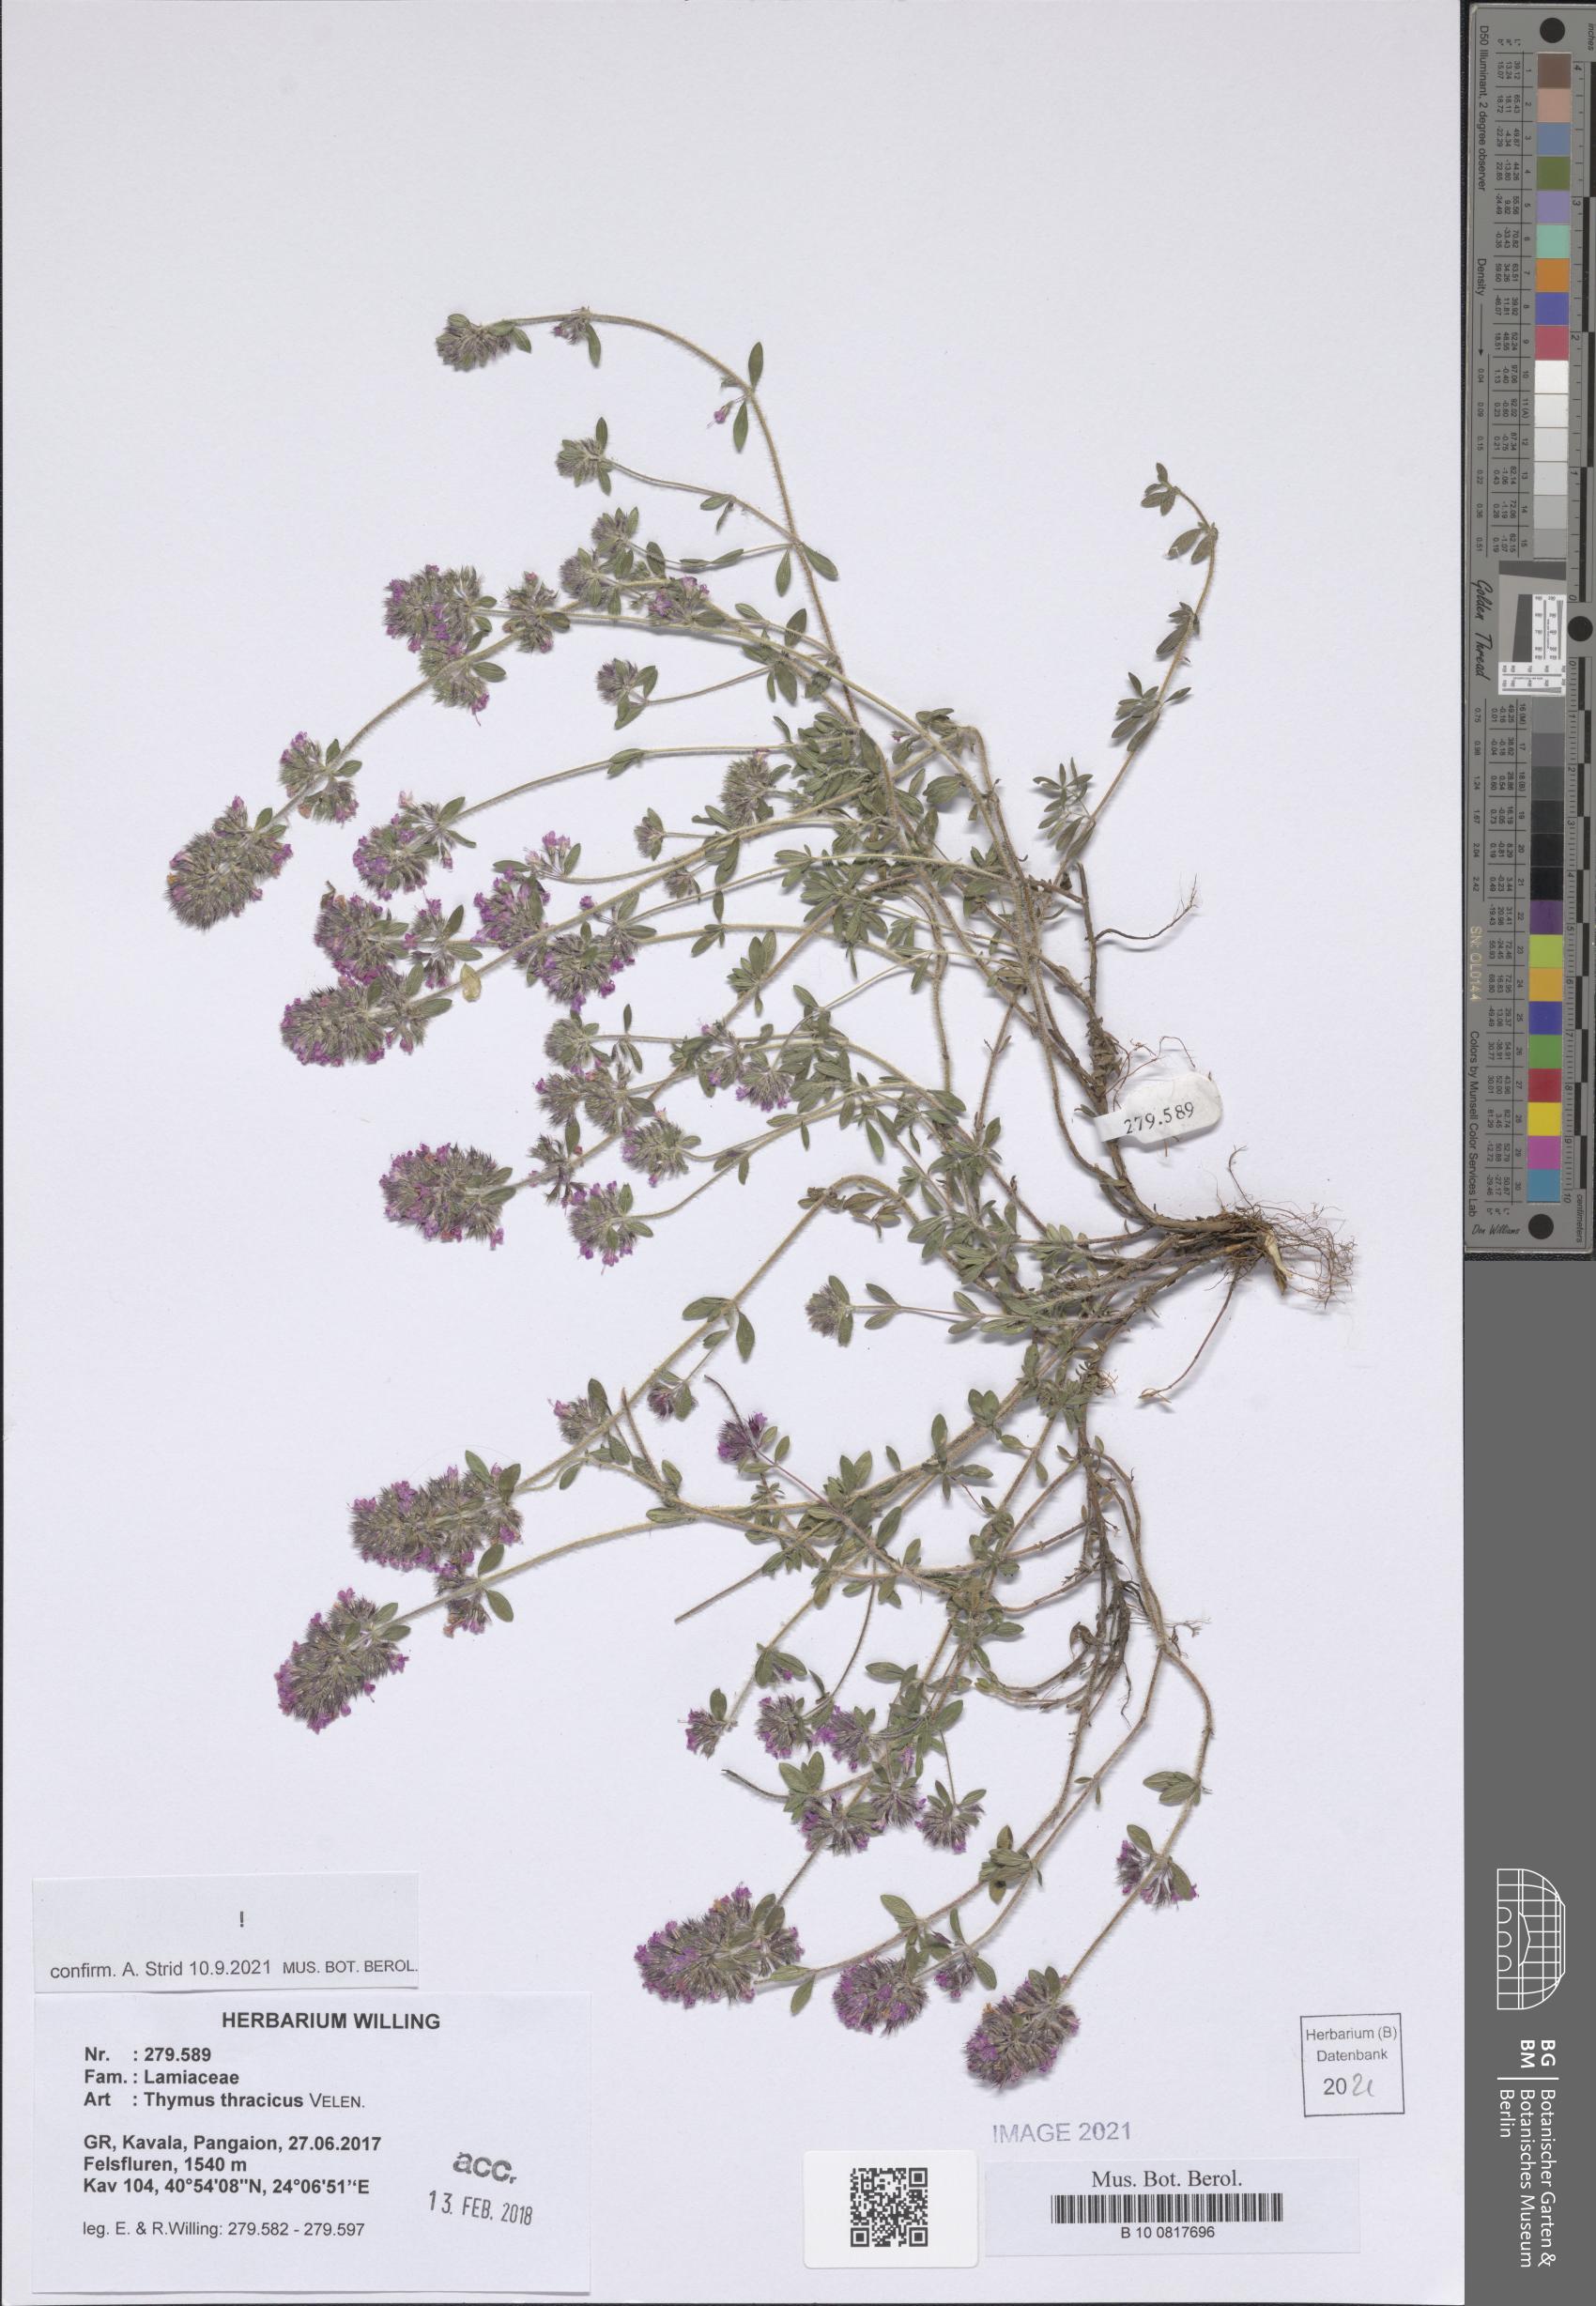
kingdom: Plantae
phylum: Tracheophyta
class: Magnoliopsida
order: Lamiales
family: Lamiaceae
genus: Thymus
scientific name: Thymus thracicus
